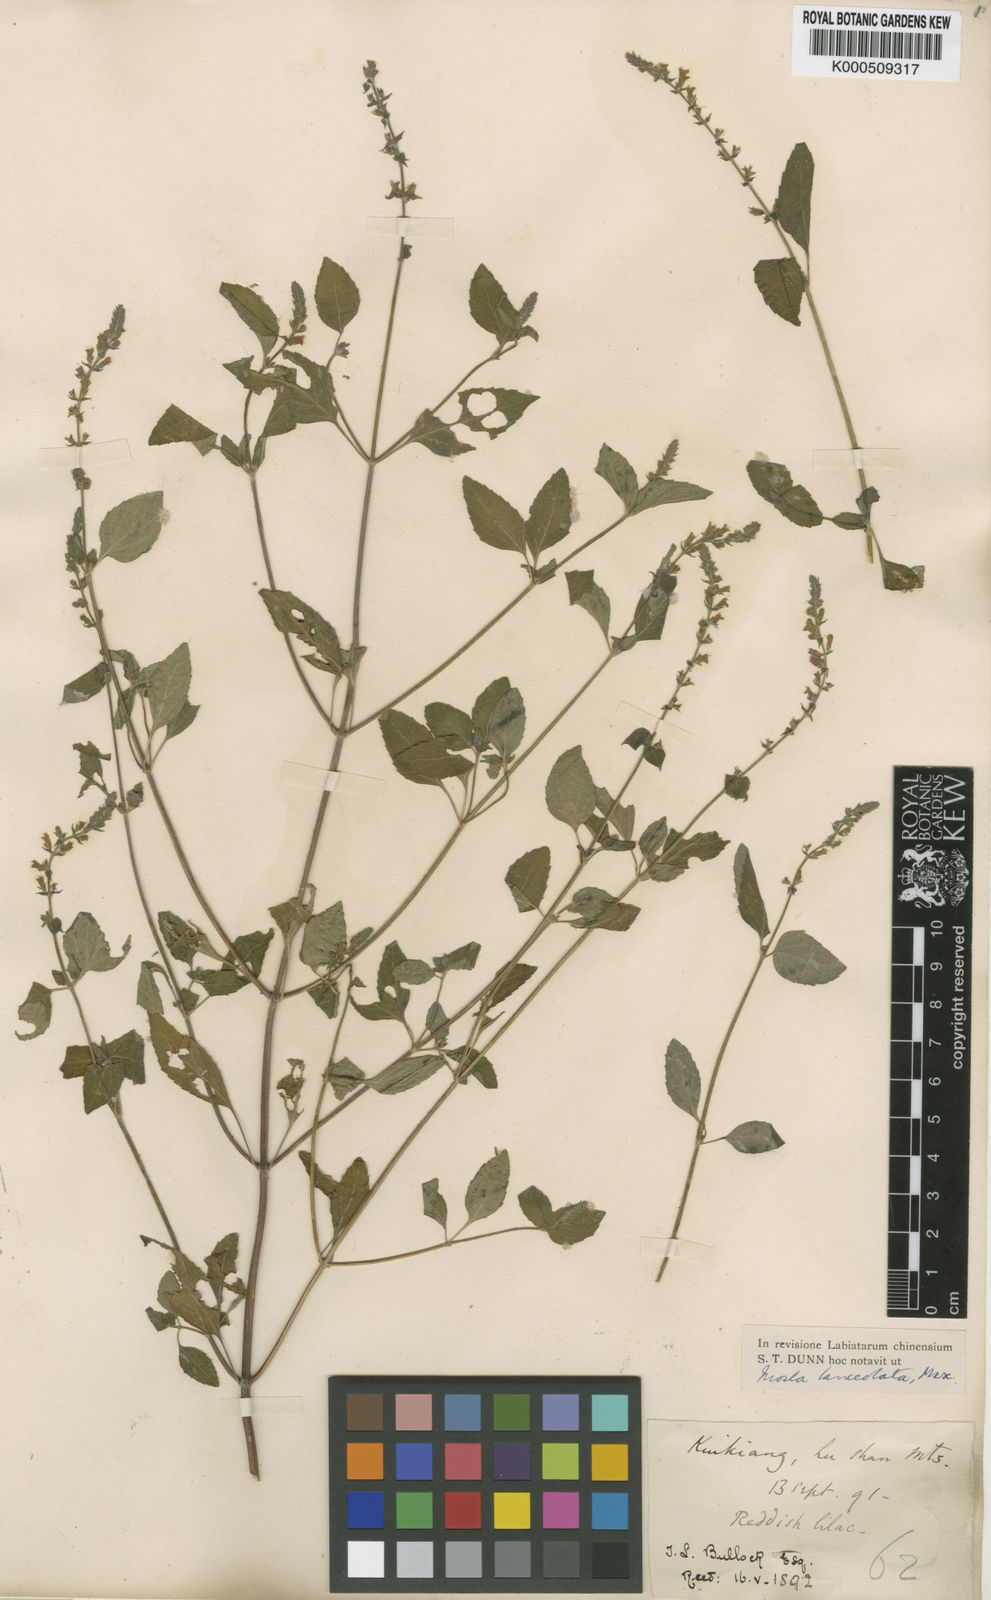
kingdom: Plantae
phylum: Tracheophyta
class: Magnoliopsida
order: Lamiales
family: Lamiaceae
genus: Mosla
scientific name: Mosla scabra
